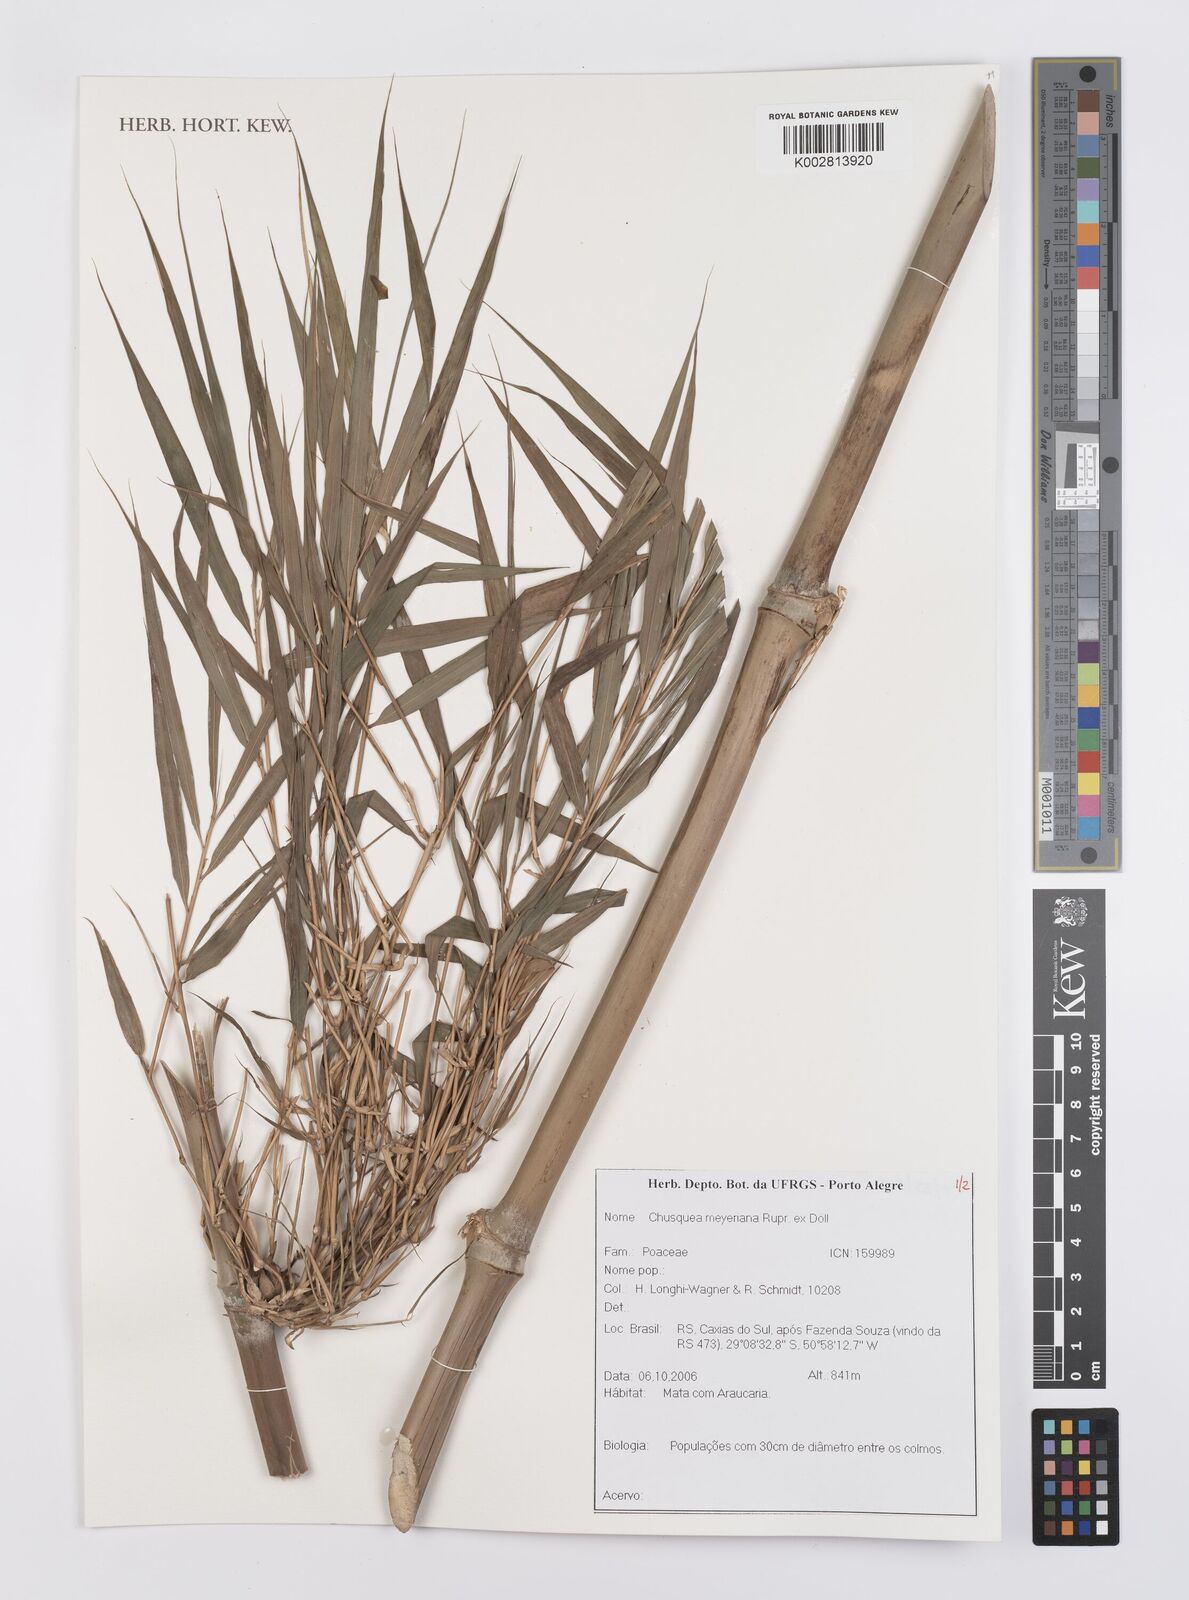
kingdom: Plantae
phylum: Tracheophyta
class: Liliopsida
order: Poales
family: Poaceae
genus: Chusquea
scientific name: Chusquea meyeriana
